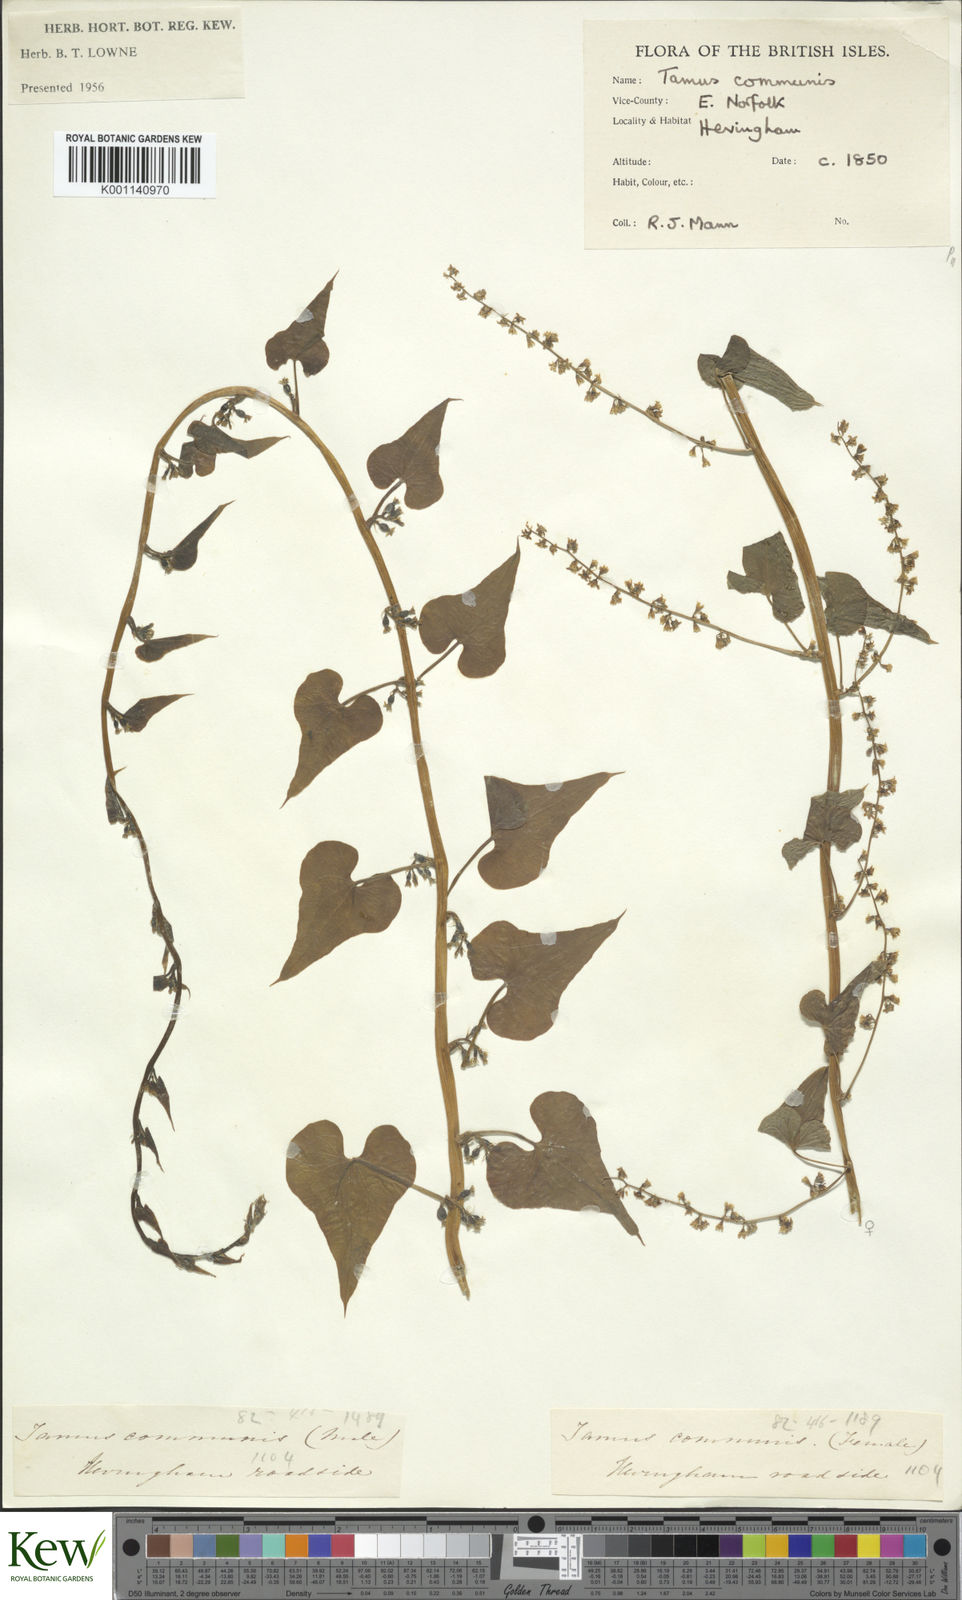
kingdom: Plantae
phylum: Tracheophyta
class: Liliopsida
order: Dioscoreales
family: Dioscoreaceae
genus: Dioscorea
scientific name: Dioscorea communis
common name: Black-bindweed
